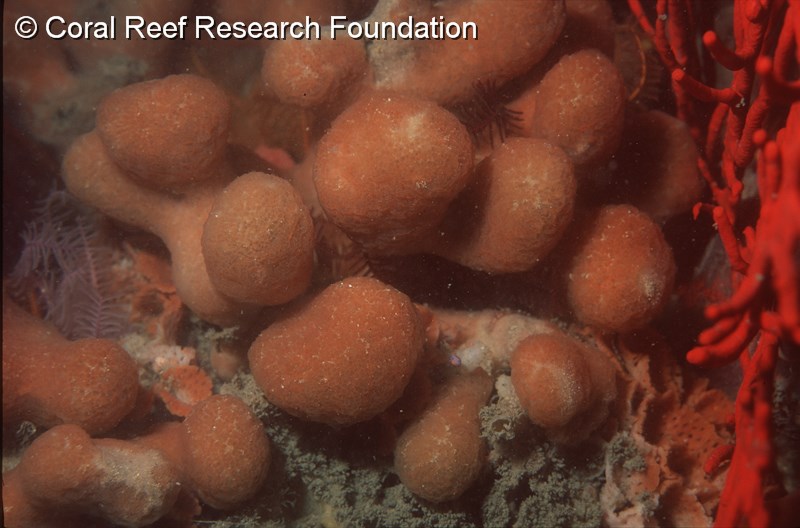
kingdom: Animalia
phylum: Chordata
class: Ascidiacea
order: Aplousobranchia
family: Polyclinidae
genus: Synoicum
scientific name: Synoicum
